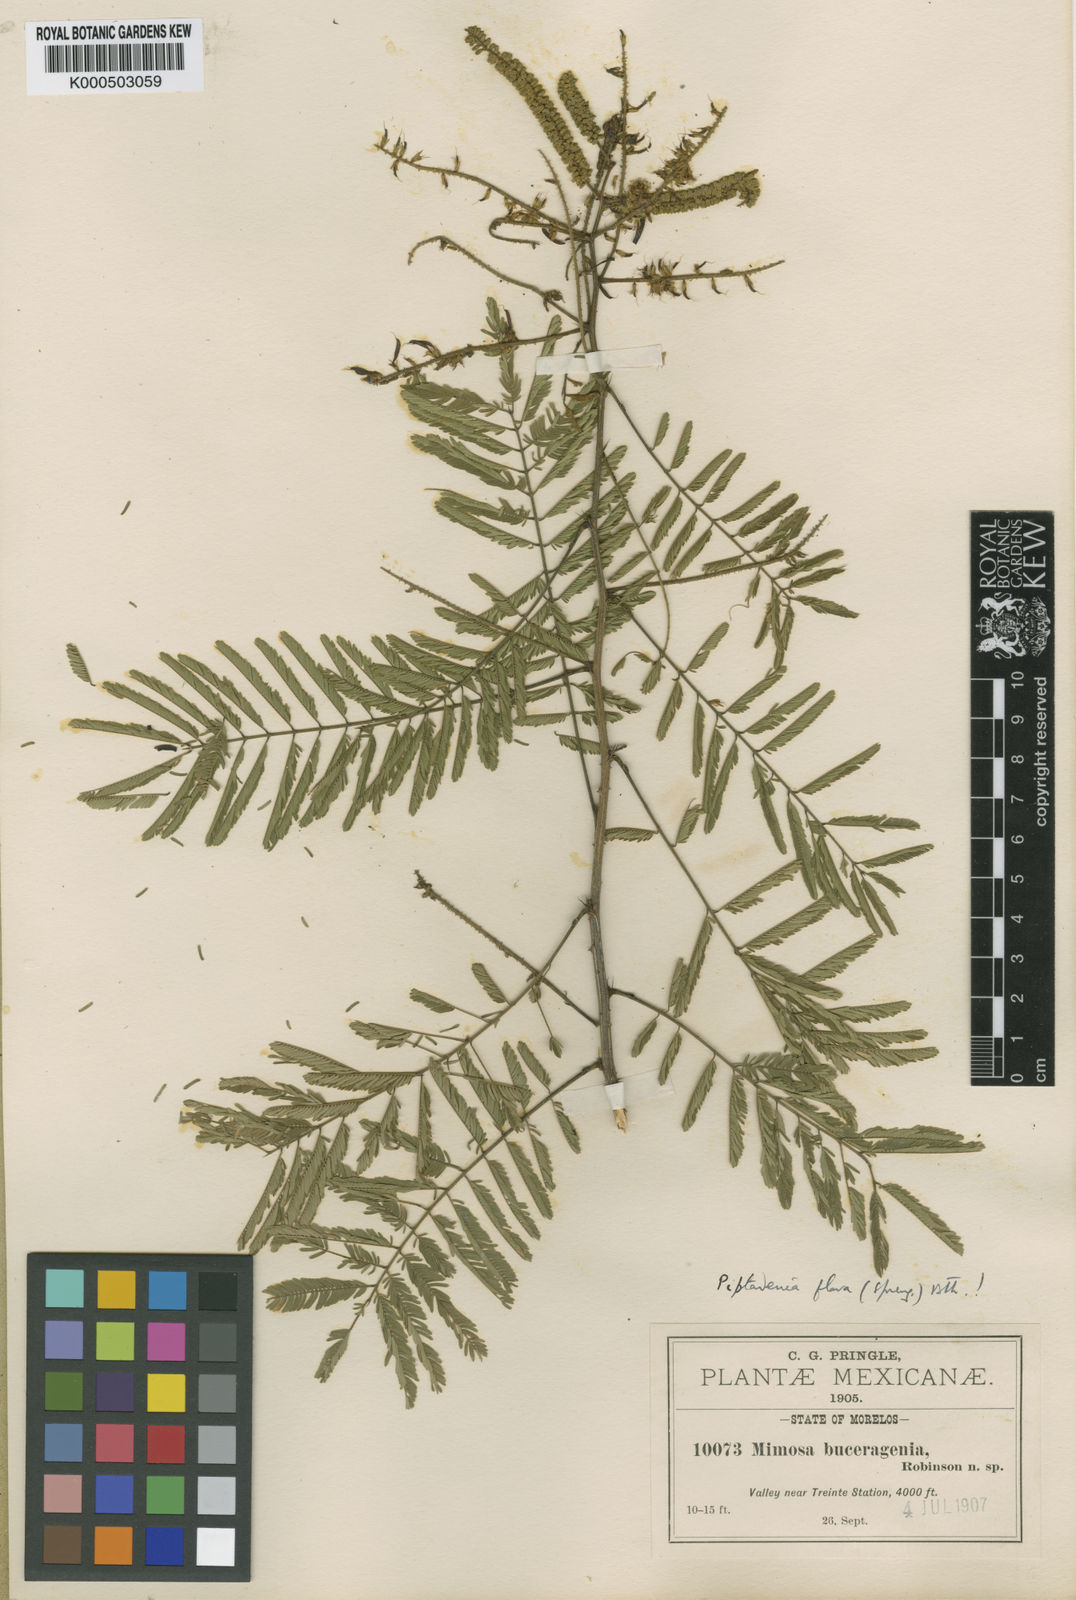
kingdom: Plantae
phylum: Tracheophyta
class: Magnoliopsida
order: Fabales
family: Fabaceae
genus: Piptadenia
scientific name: Piptadenia retusa
